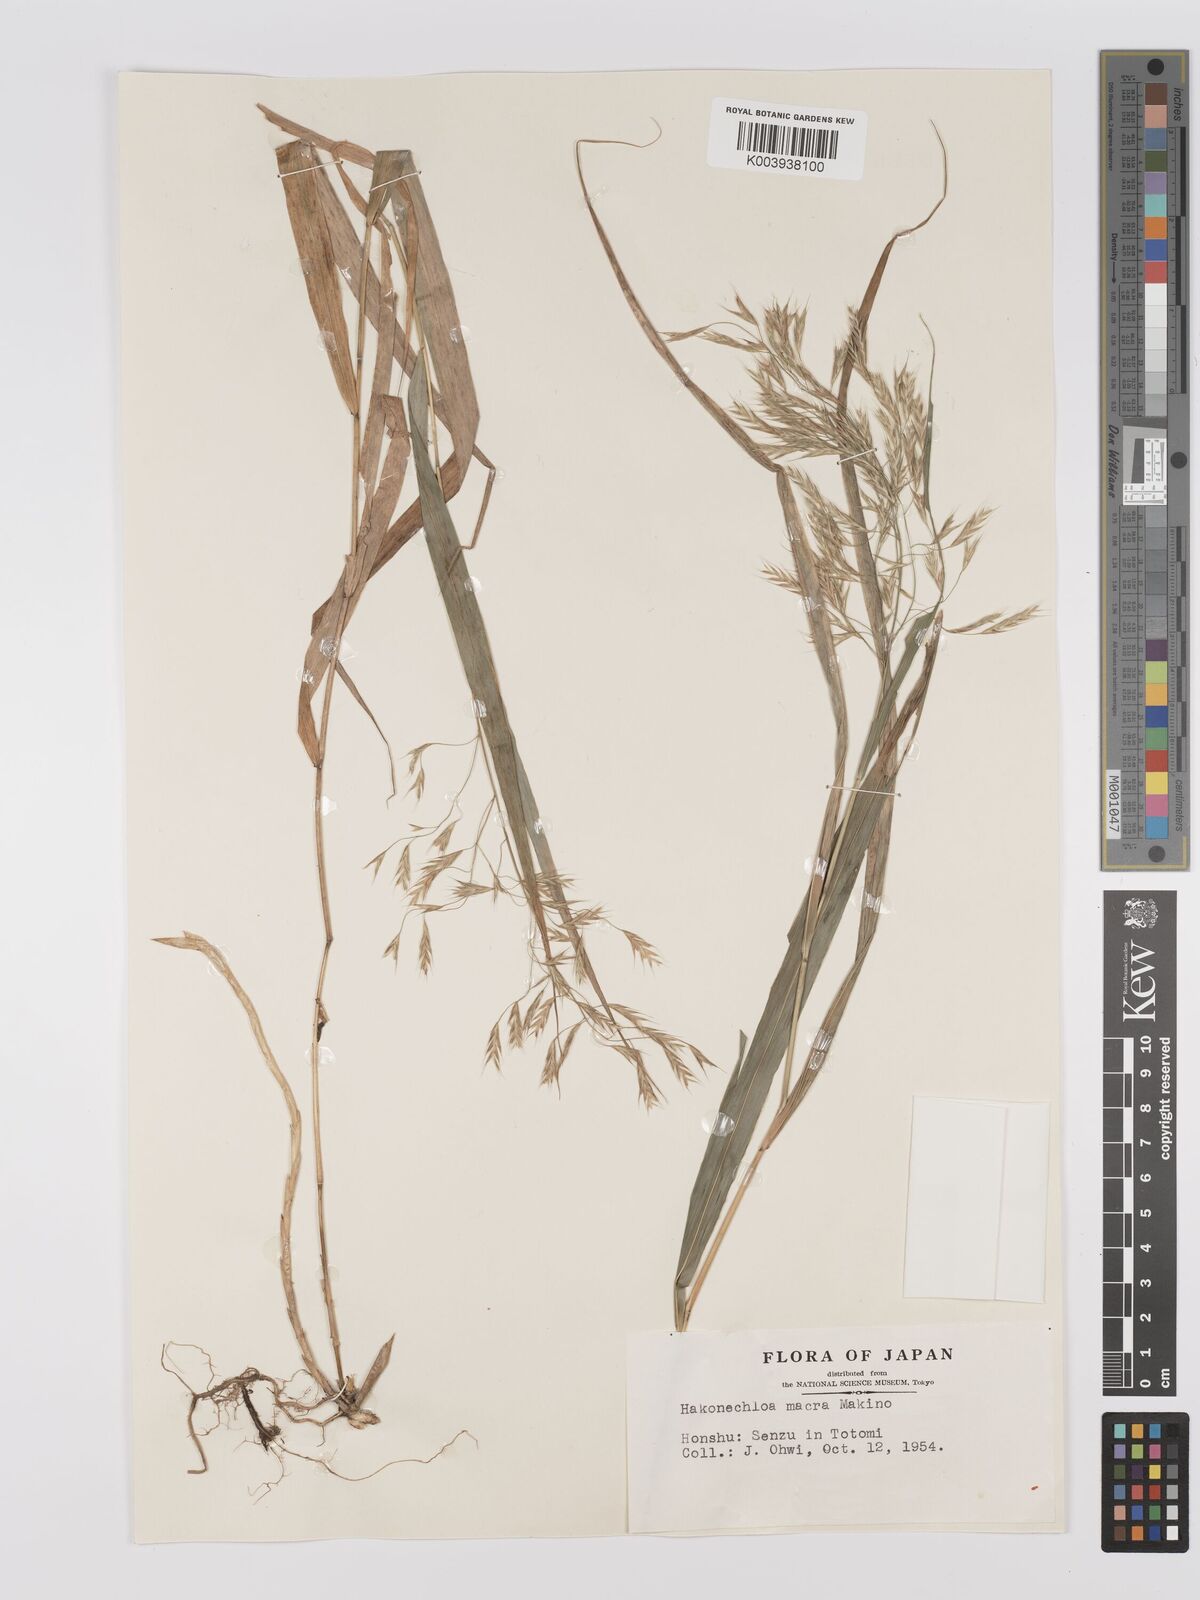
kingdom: Plantae
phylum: Tracheophyta
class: Liliopsida
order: Poales
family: Poaceae
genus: Hakonechloa
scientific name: Hakonechloa macra
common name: Hakone grass
